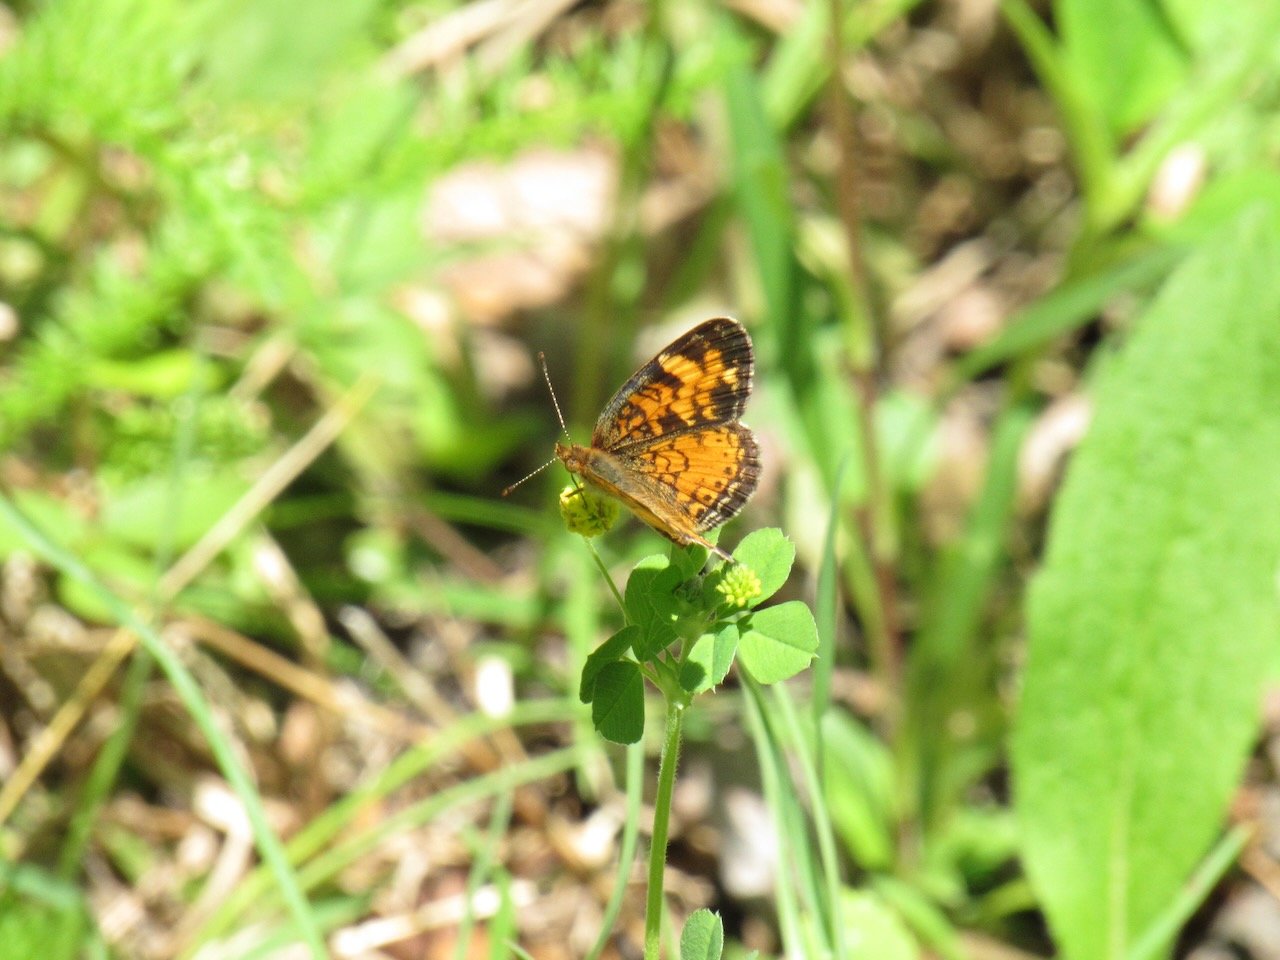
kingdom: Animalia
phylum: Arthropoda
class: Insecta
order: Lepidoptera
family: Nymphalidae
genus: Phyciodes
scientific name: Phyciodes tharos
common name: Pearl Crescent
